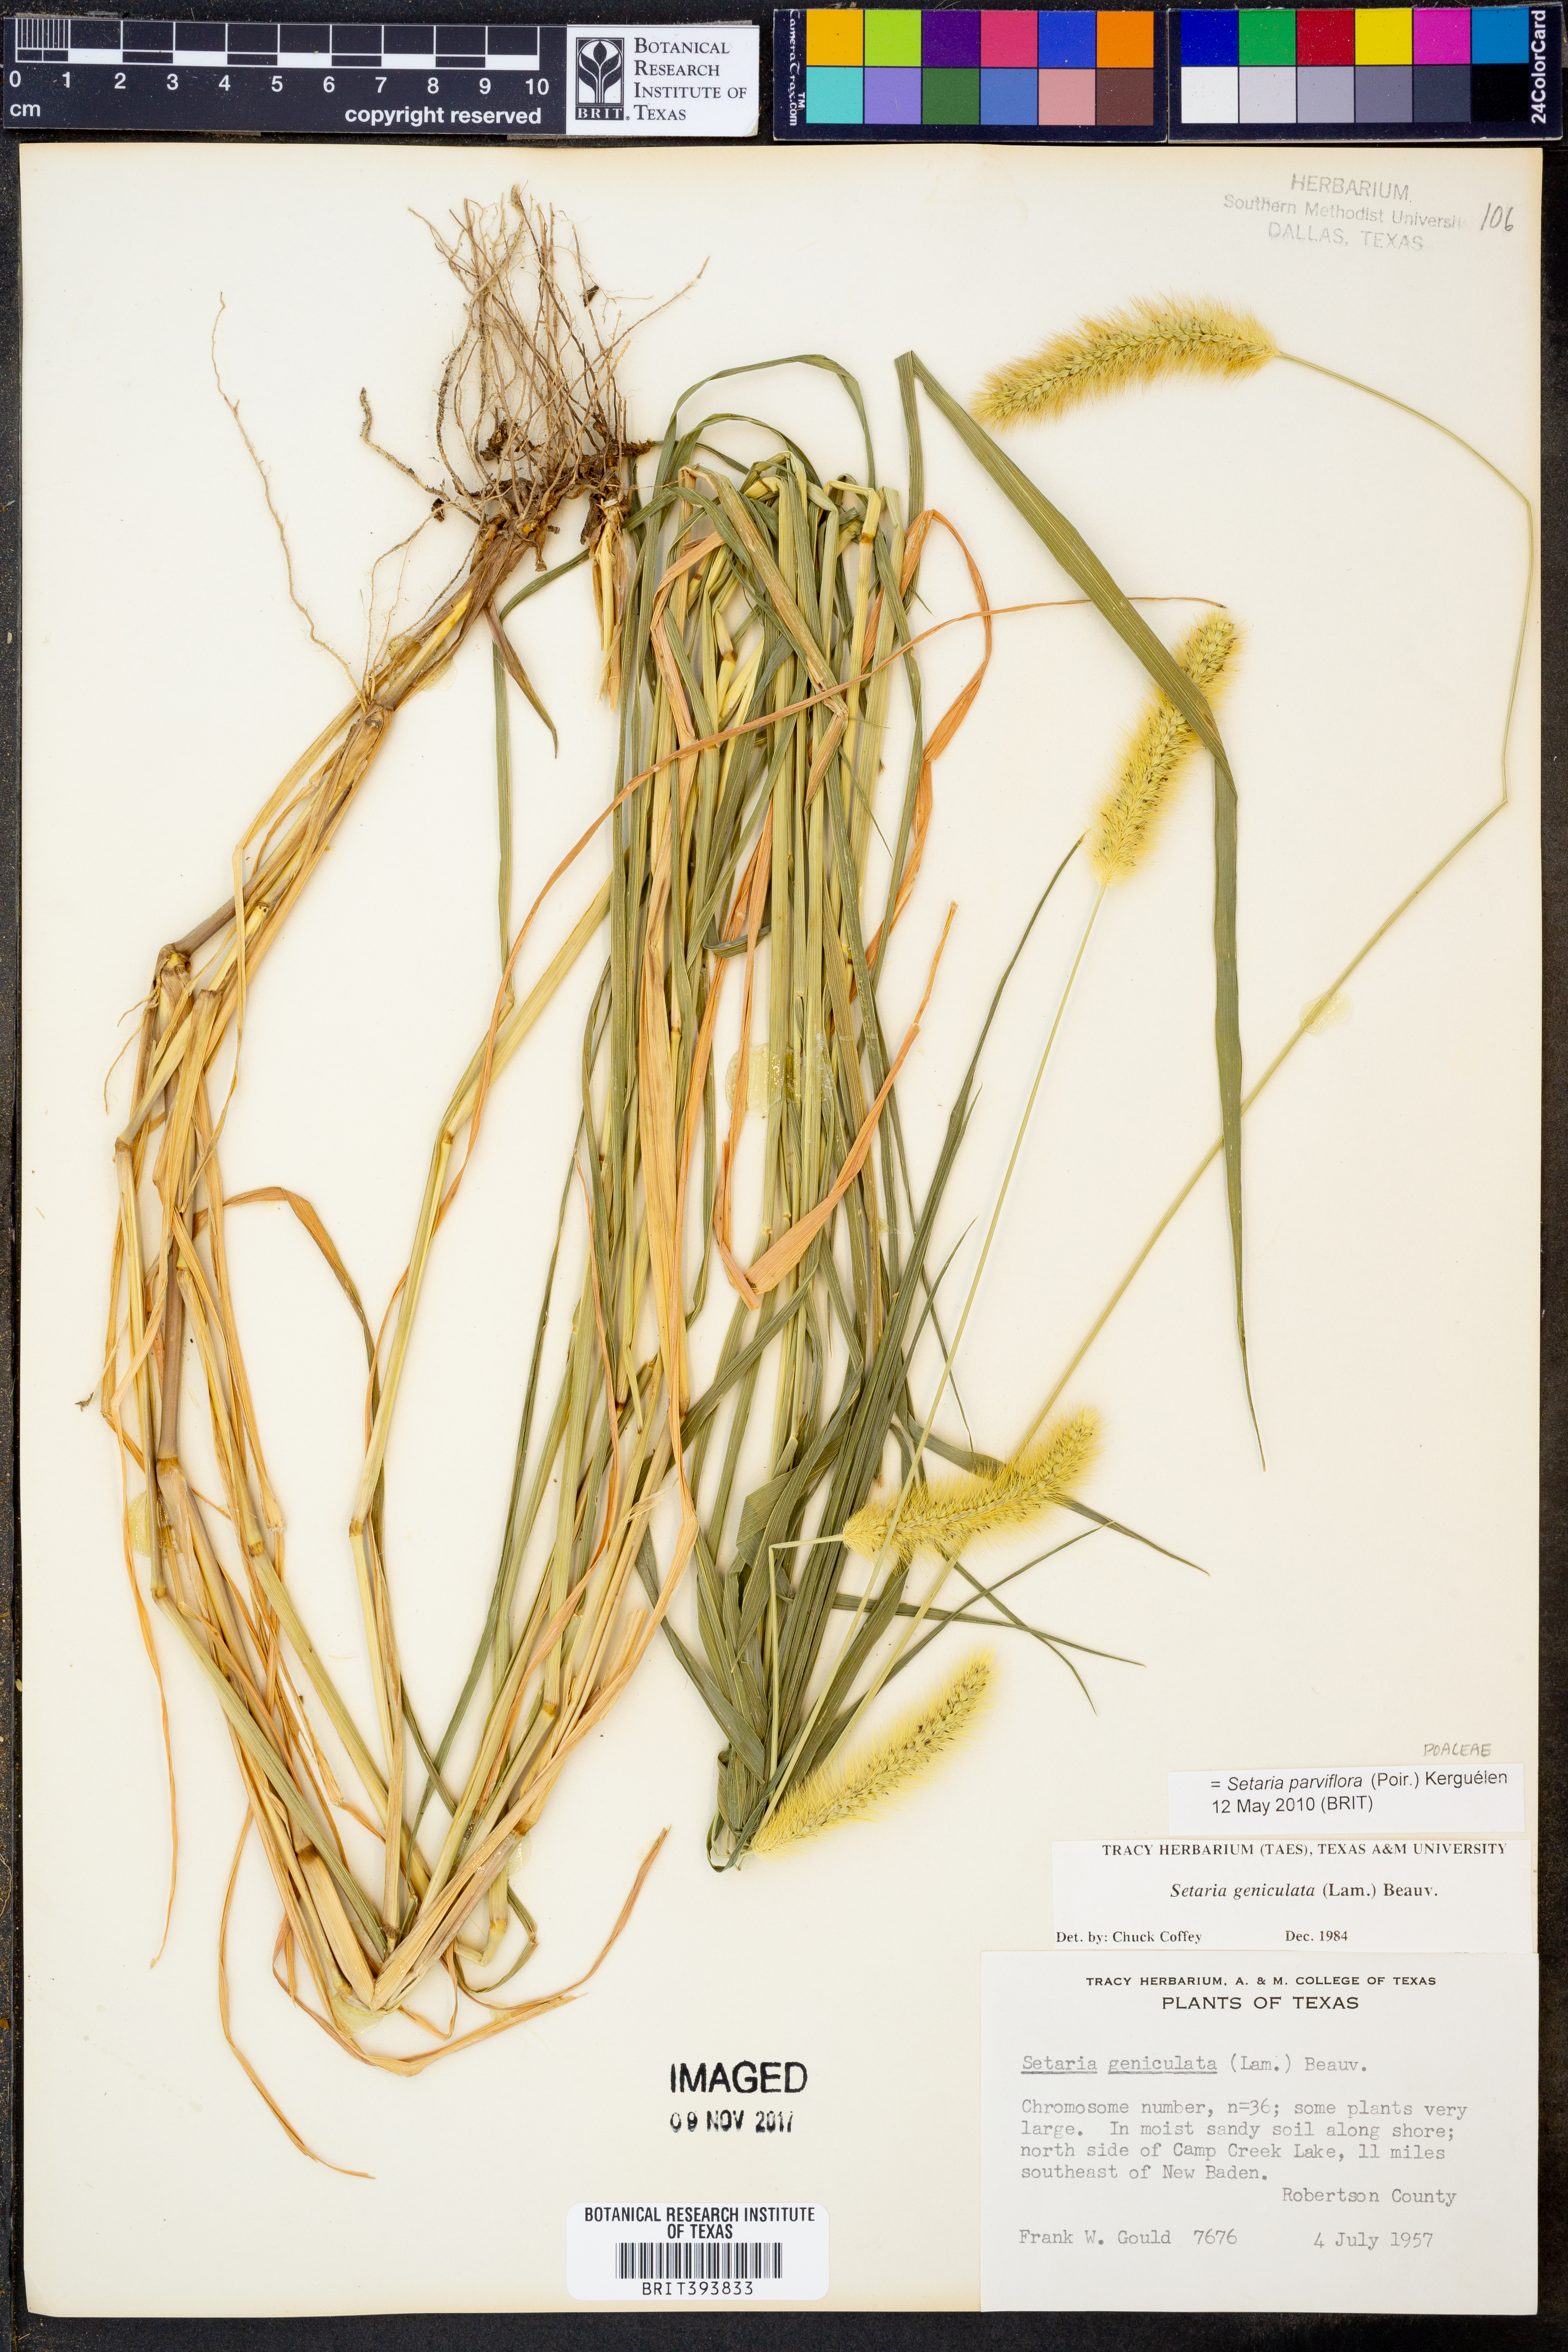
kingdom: Plantae
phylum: Tracheophyta
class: Liliopsida
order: Poales
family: Poaceae
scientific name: Poaceae
